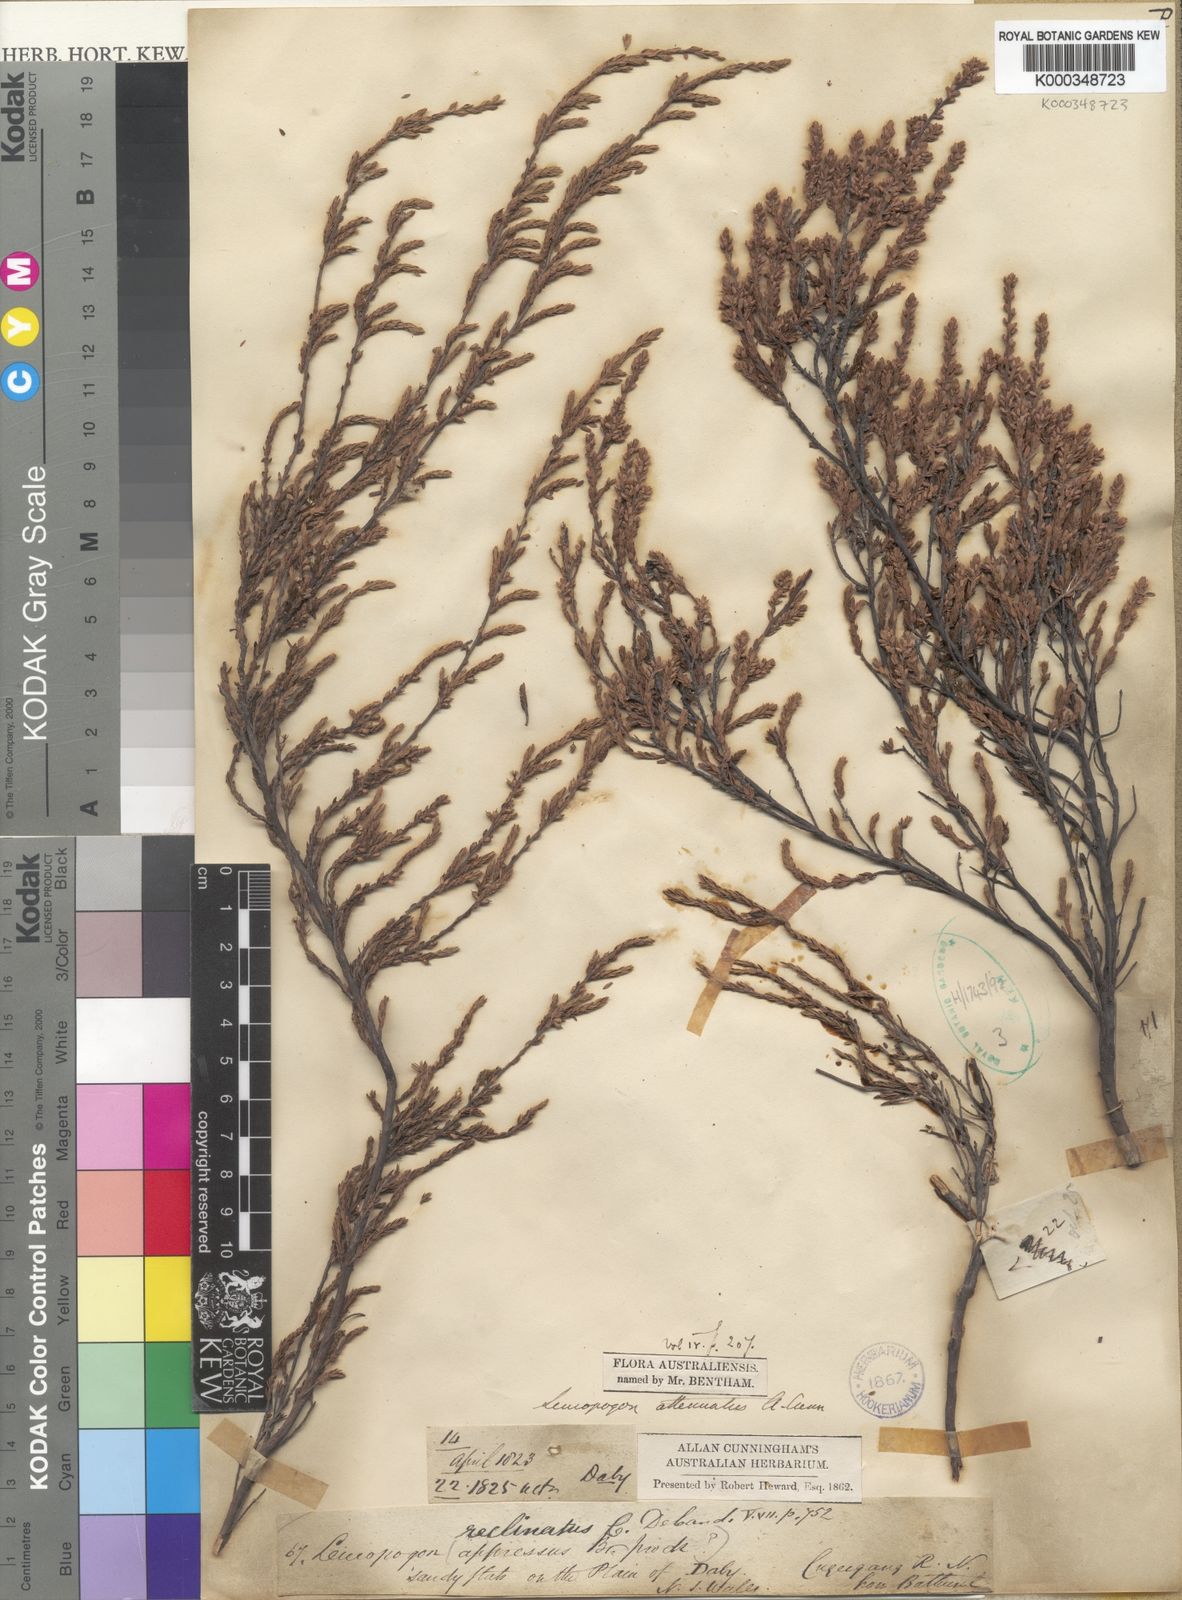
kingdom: Plantae
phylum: Tracheophyta
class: Magnoliopsida
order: Ericales
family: Ericaceae
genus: Styphelia
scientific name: Styphelia attenuata
